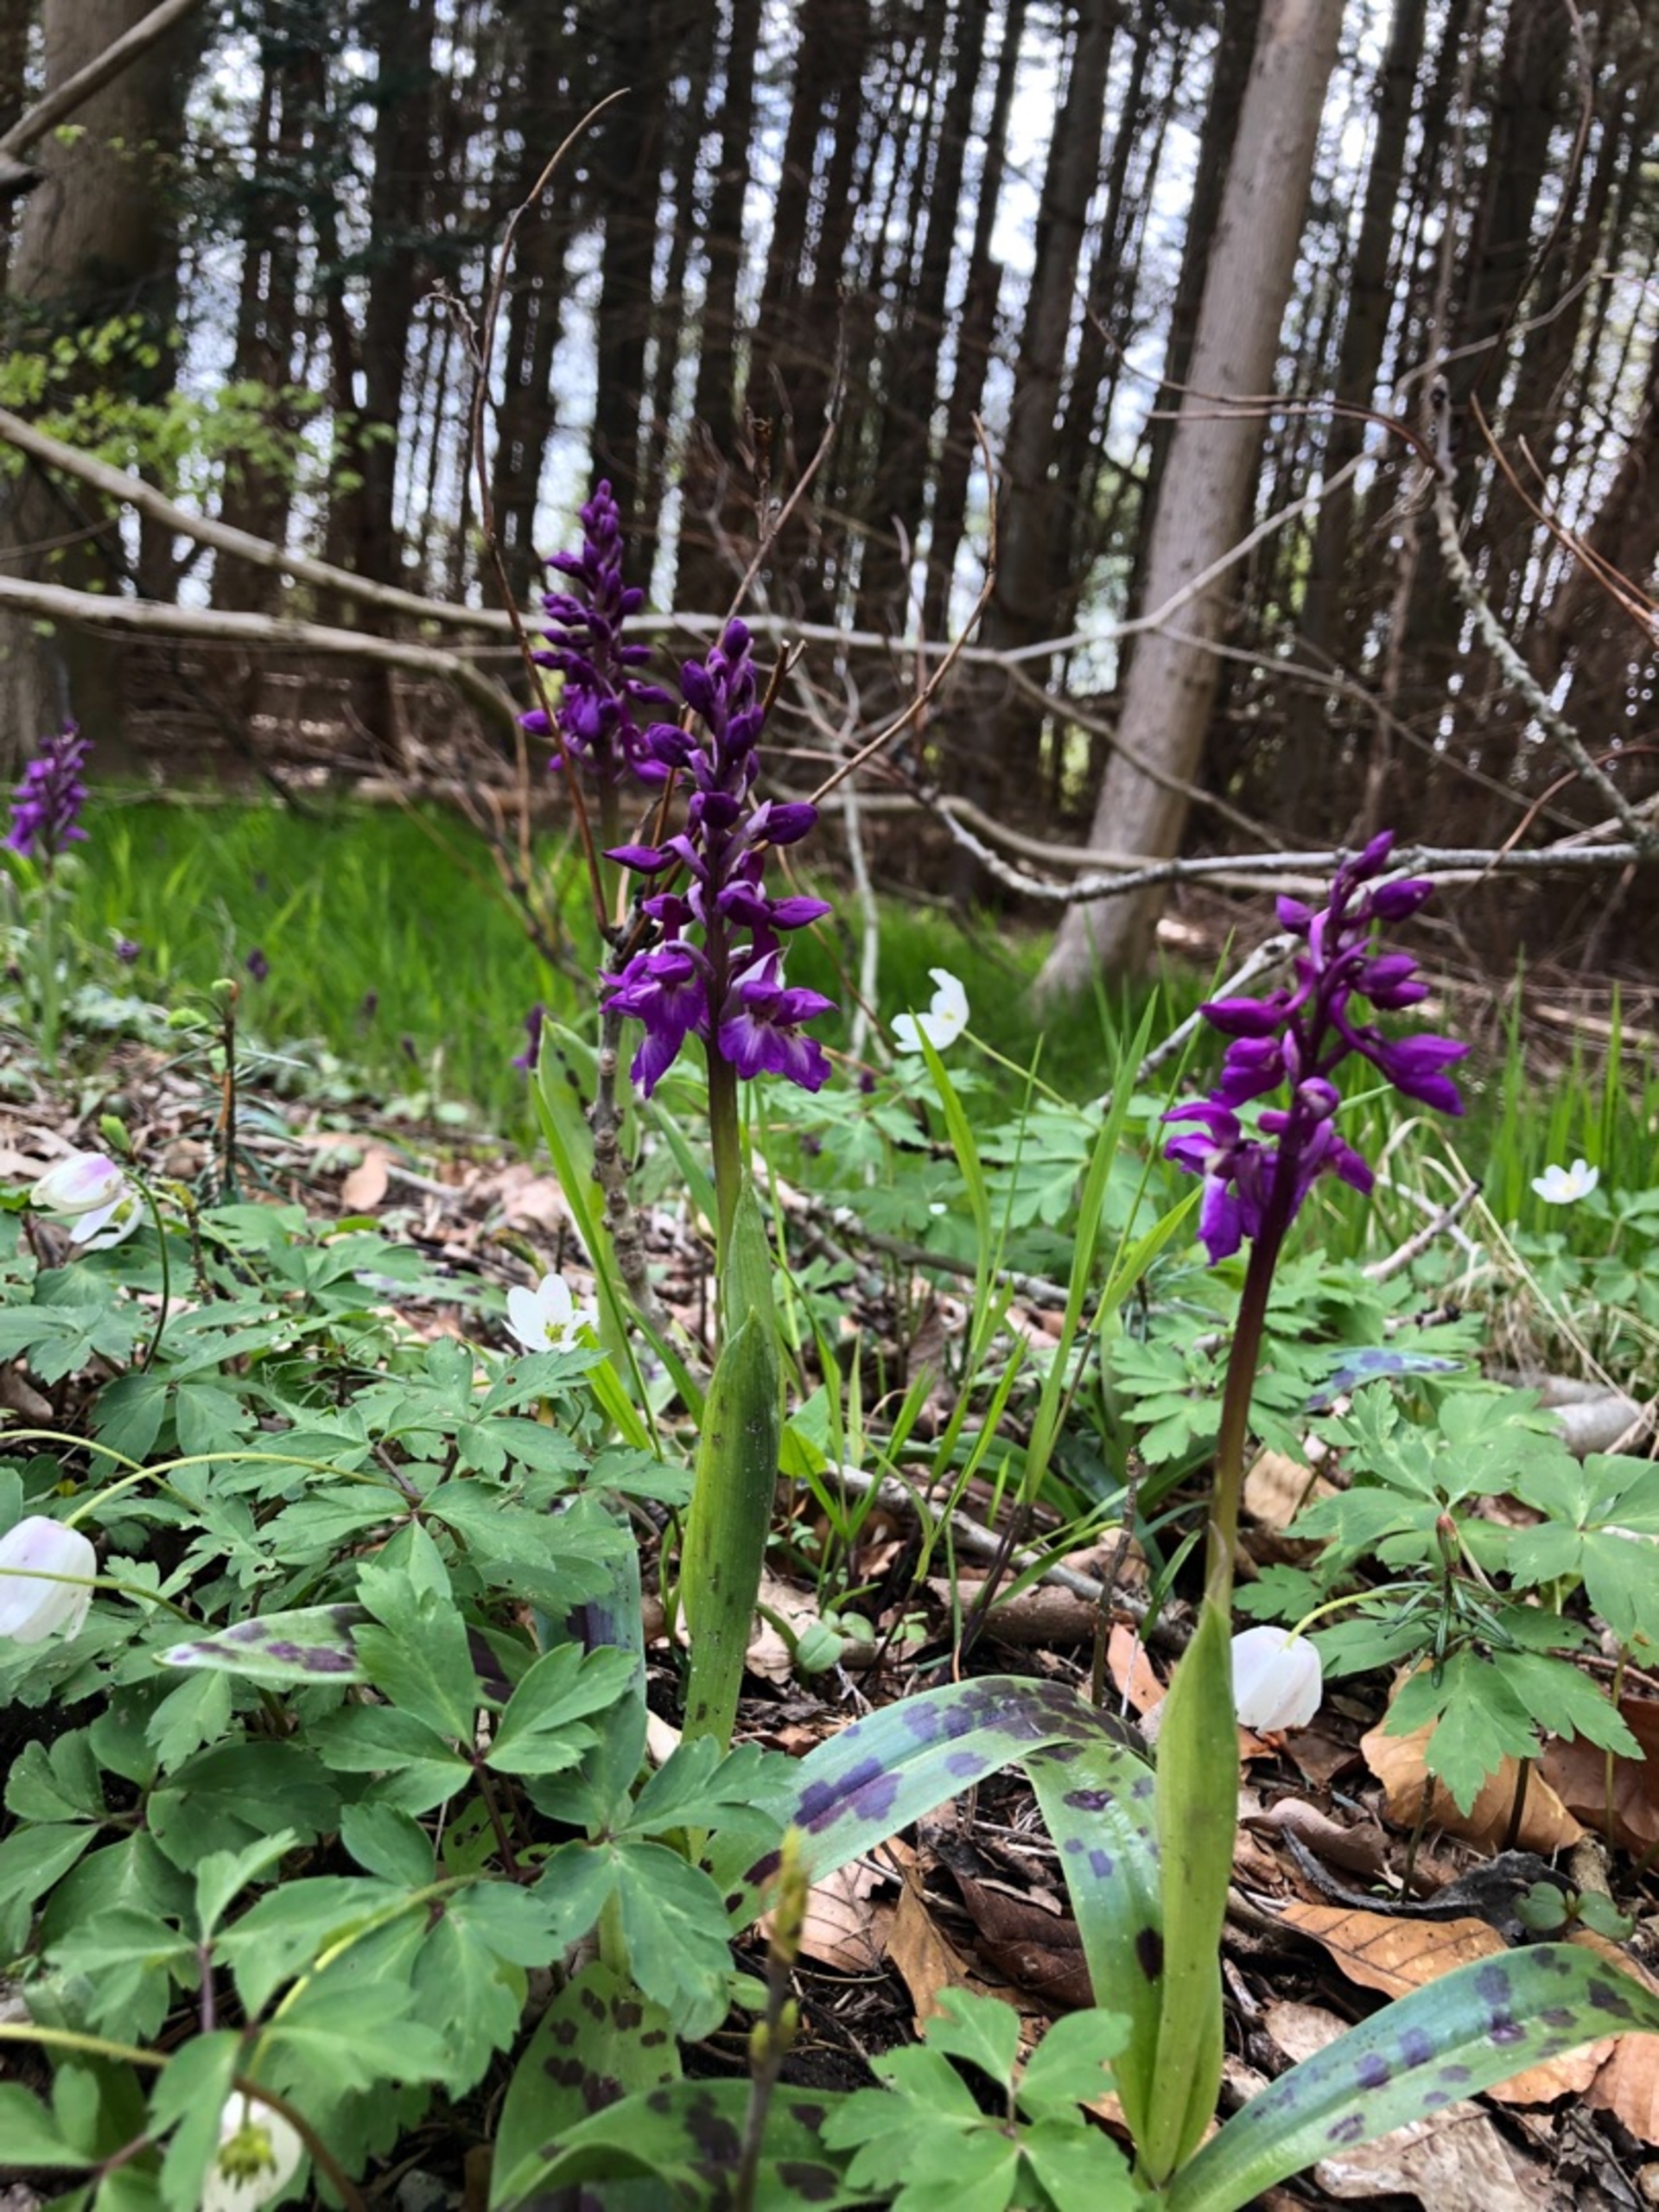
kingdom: Plantae
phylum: Tracheophyta
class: Liliopsida
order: Asparagales
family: Orchidaceae
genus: Orchis
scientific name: Orchis mascula
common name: Tyndakset gøgeurt
